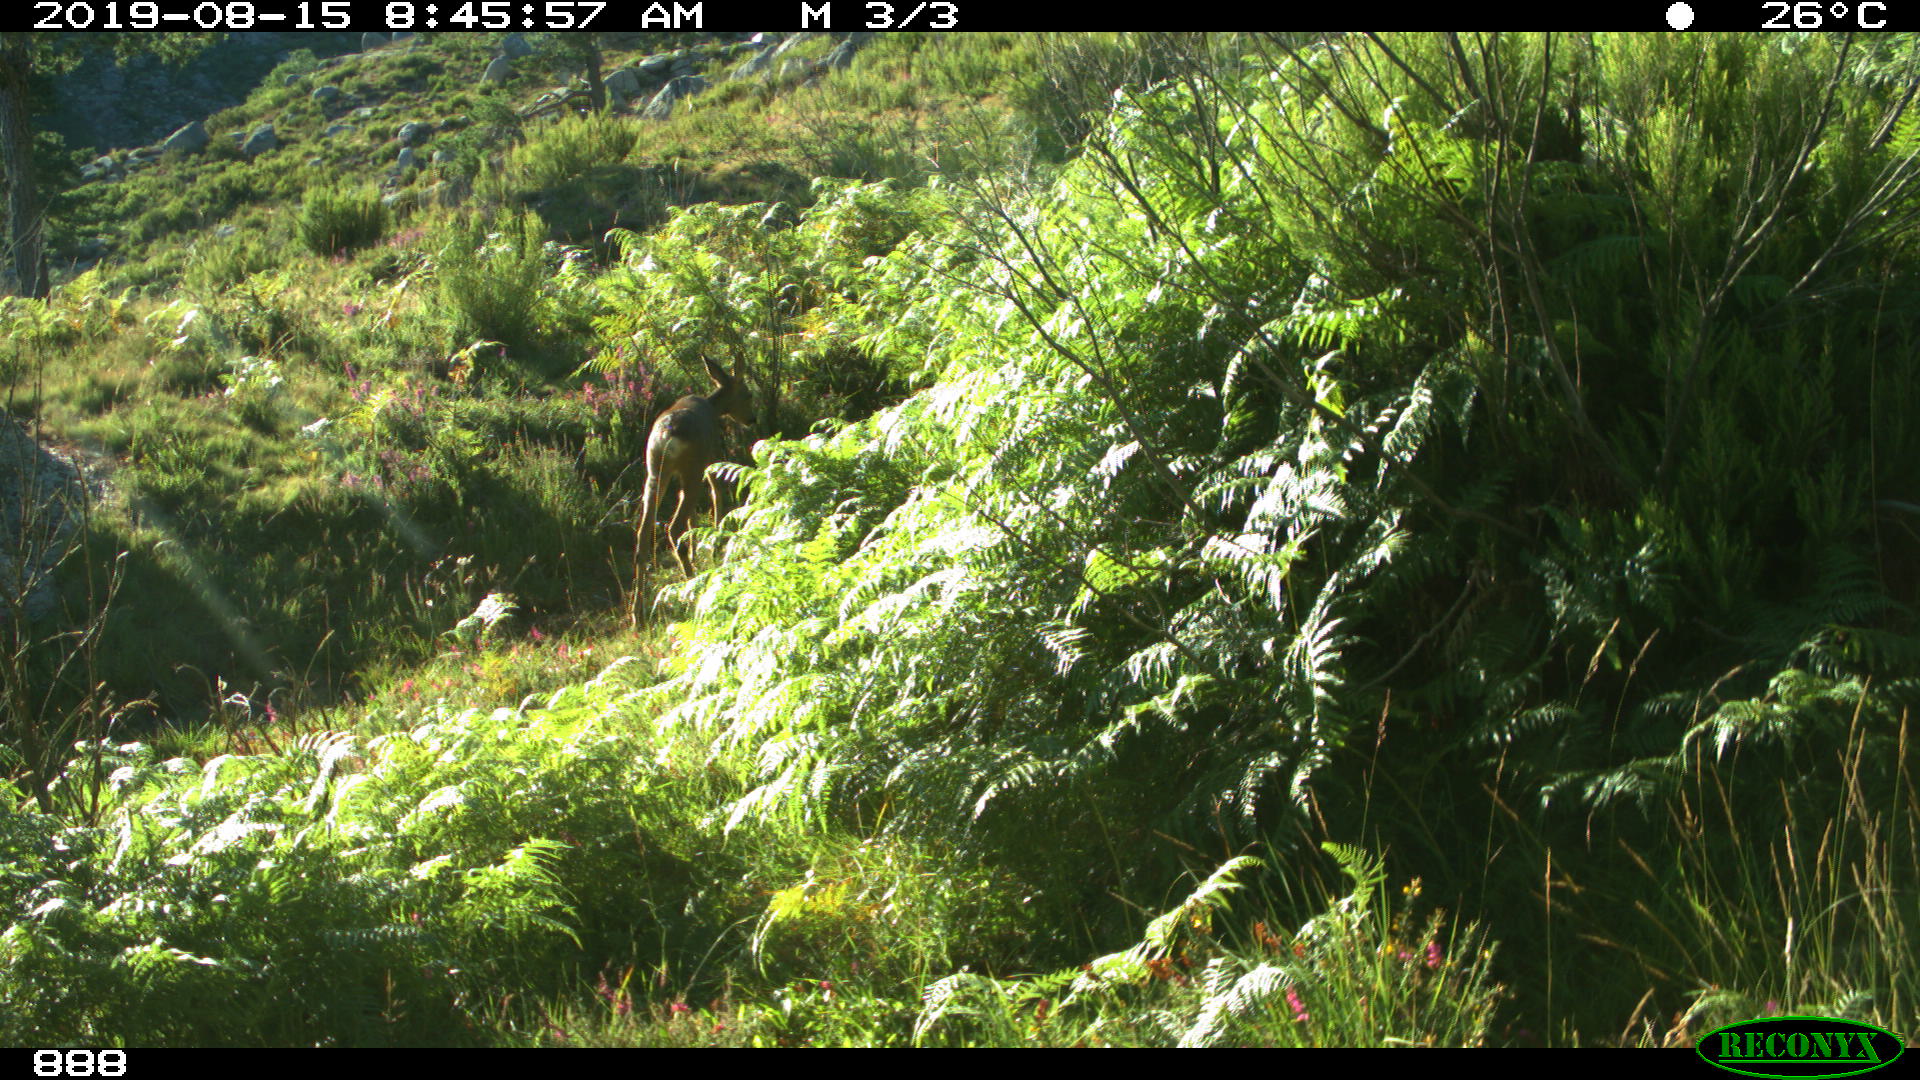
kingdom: Animalia
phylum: Chordata
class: Mammalia
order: Artiodactyla
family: Cervidae
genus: Capreolus
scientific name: Capreolus capreolus
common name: Western roe deer
